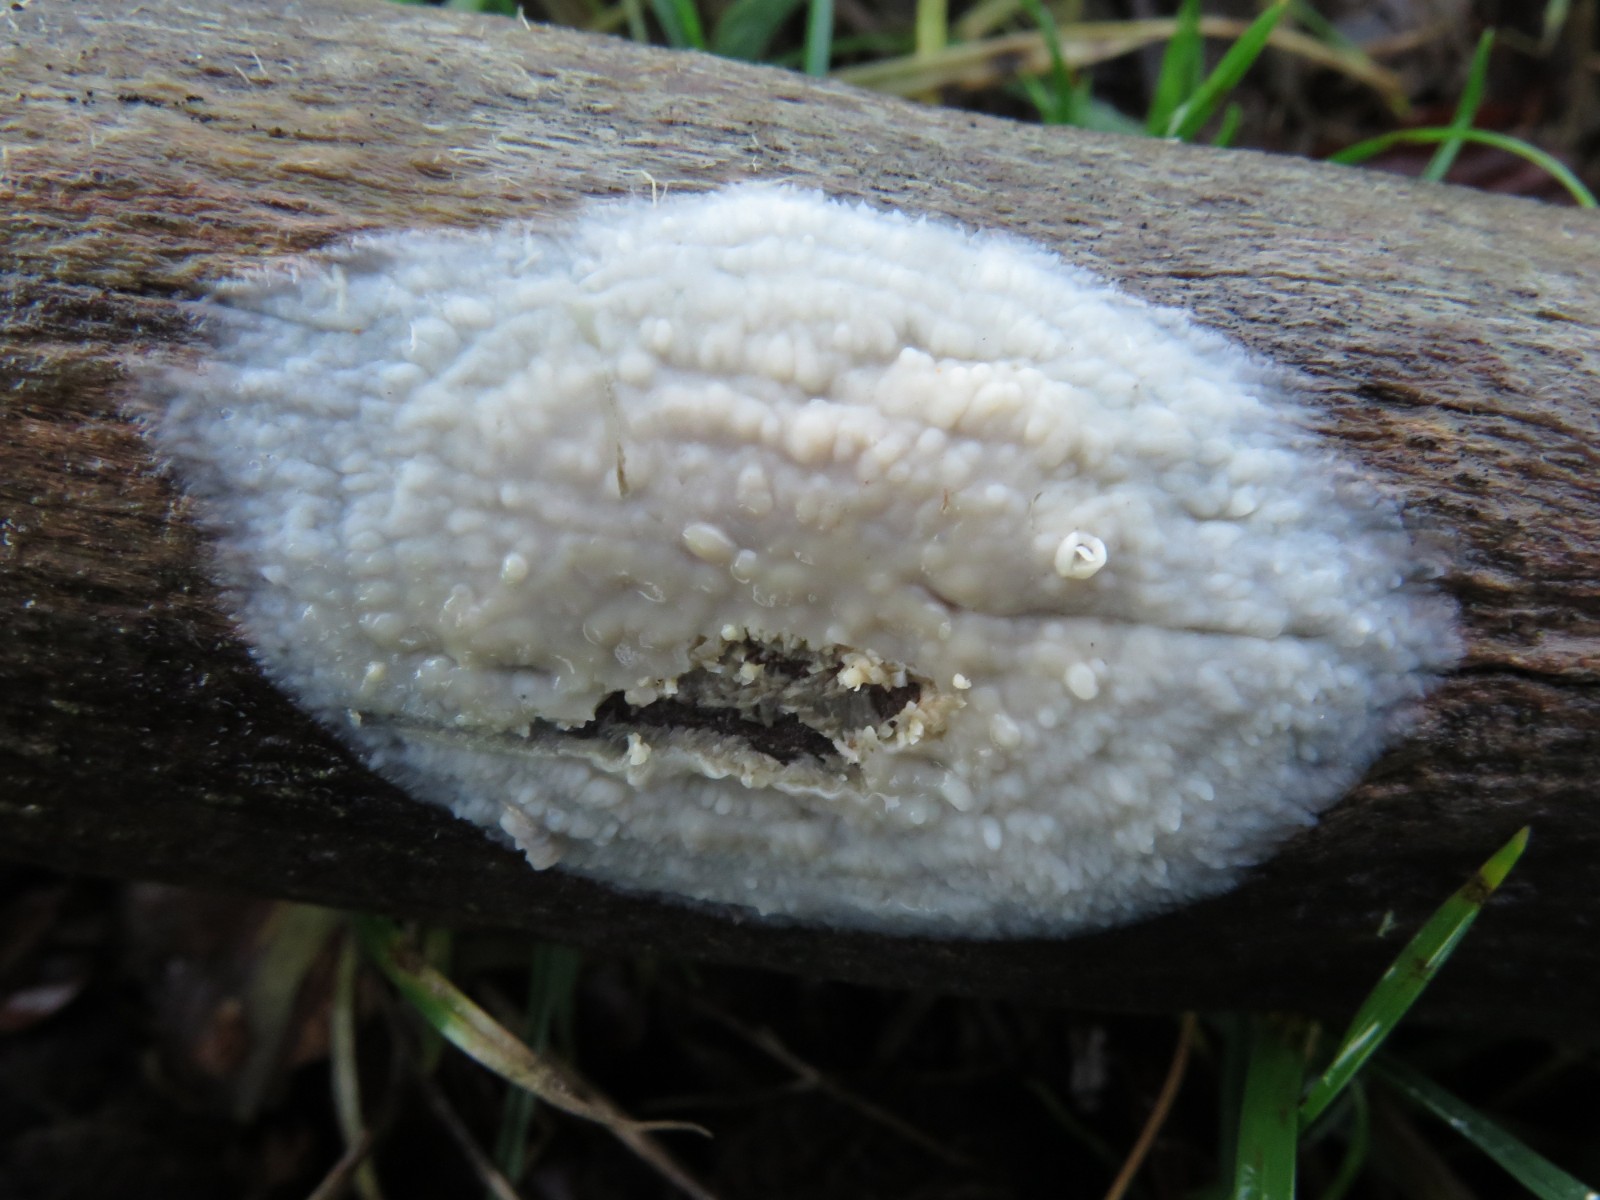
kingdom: Fungi
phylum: Basidiomycota
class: Agaricomycetes
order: Agaricales
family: Radulomycetaceae
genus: Radulomyces
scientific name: Radulomyces confluens
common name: glat naftalinskind
